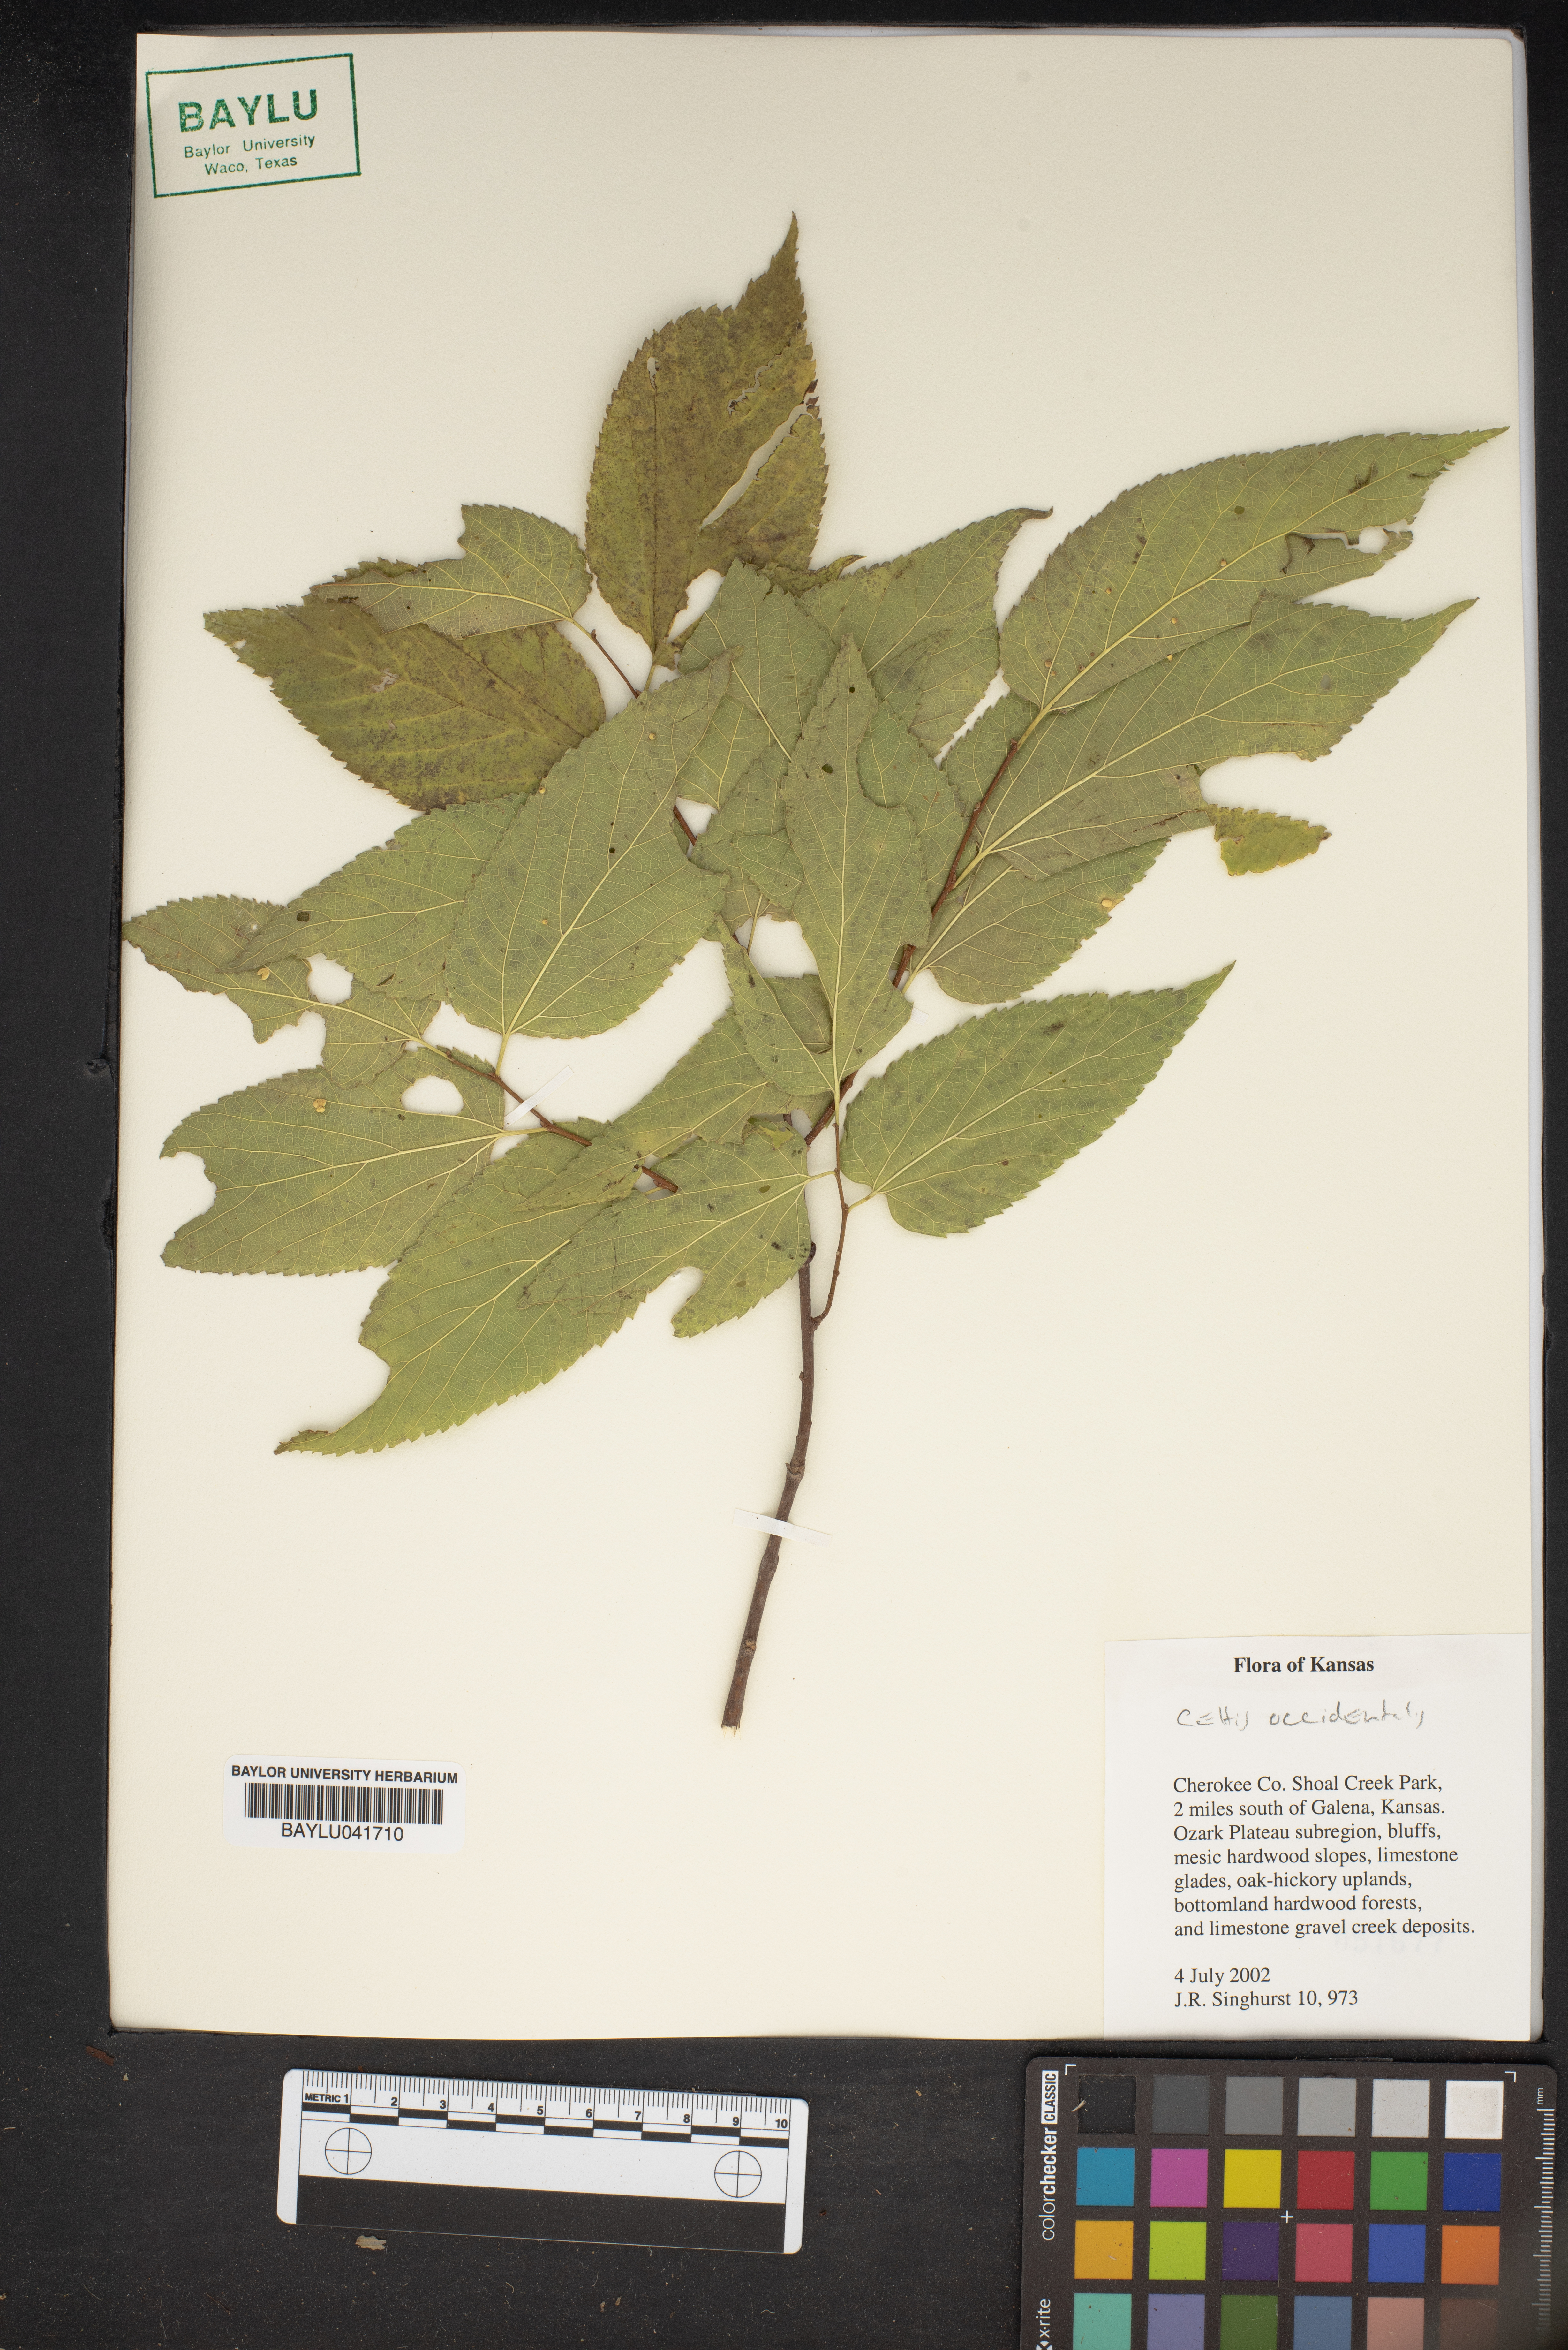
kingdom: Plantae
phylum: Tracheophyta
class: Magnoliopsida
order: Rosales
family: Cannabaceae
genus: Celtis
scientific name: Celtis occidentalis
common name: Common hackberry
